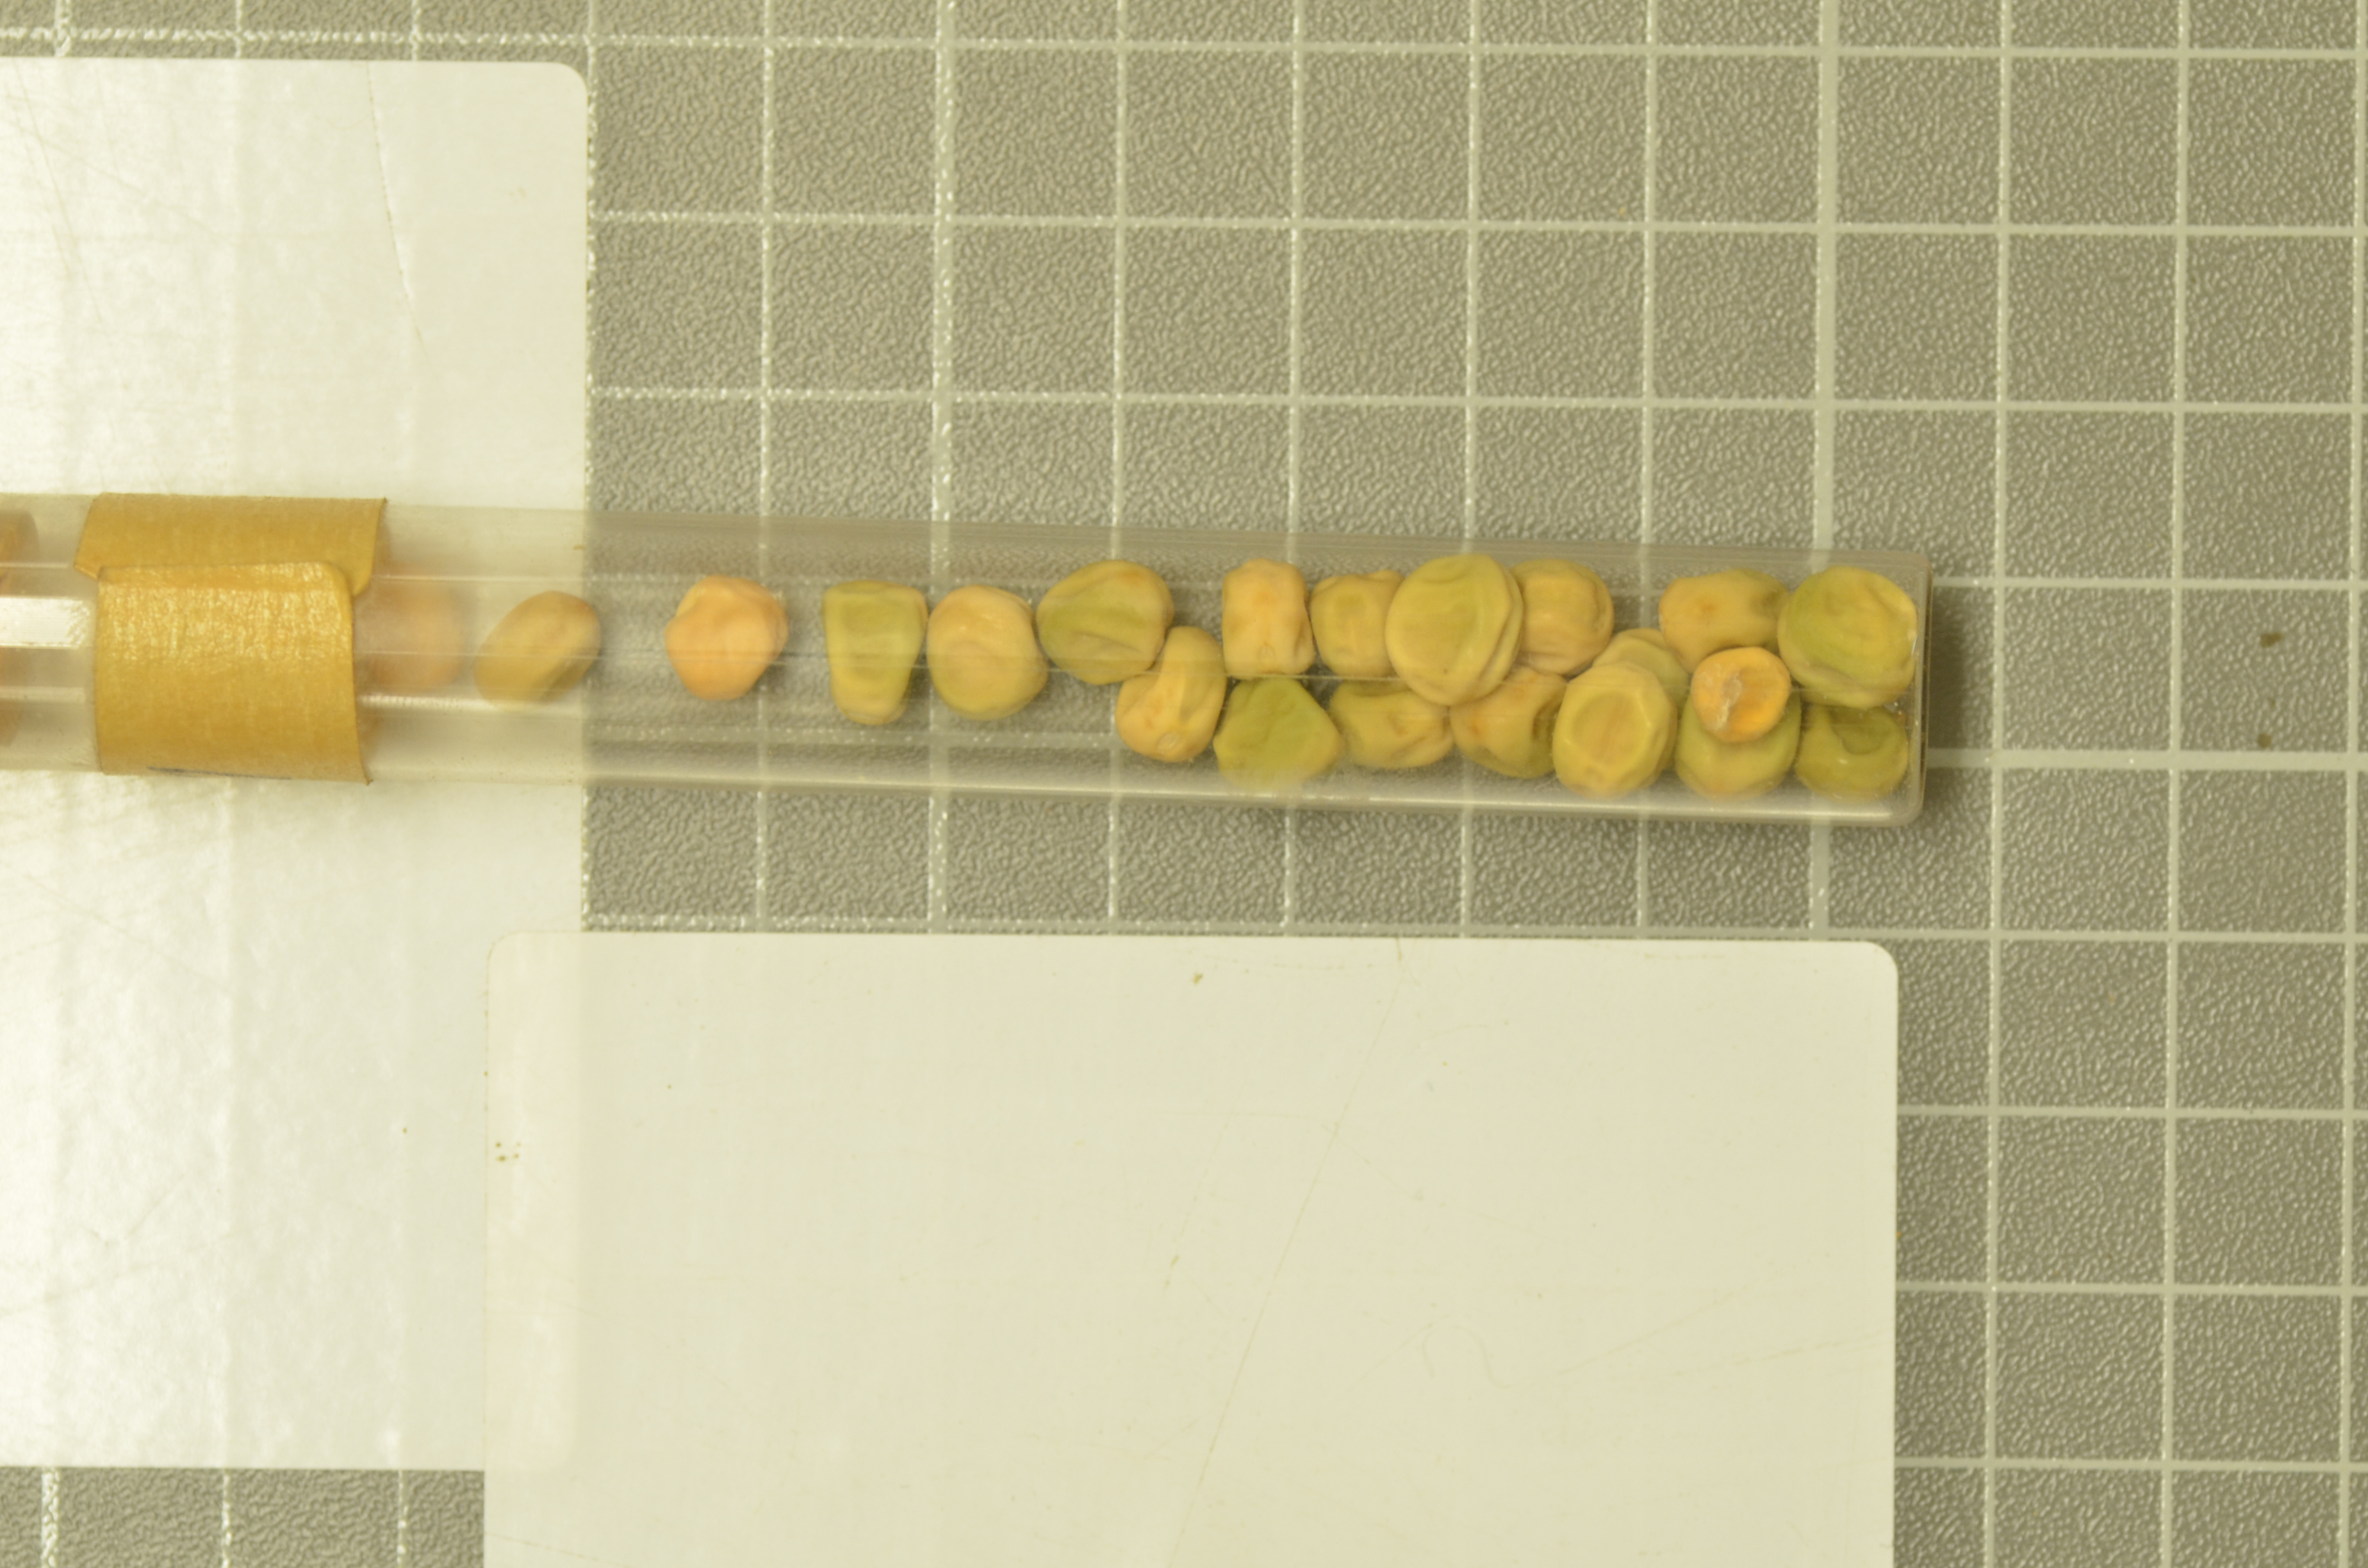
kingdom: Plantae
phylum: Tracheophyta
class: Magnoliopsida
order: Fabales
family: Fabaceae
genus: Lathyrus
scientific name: Lathyrus oleraceus
